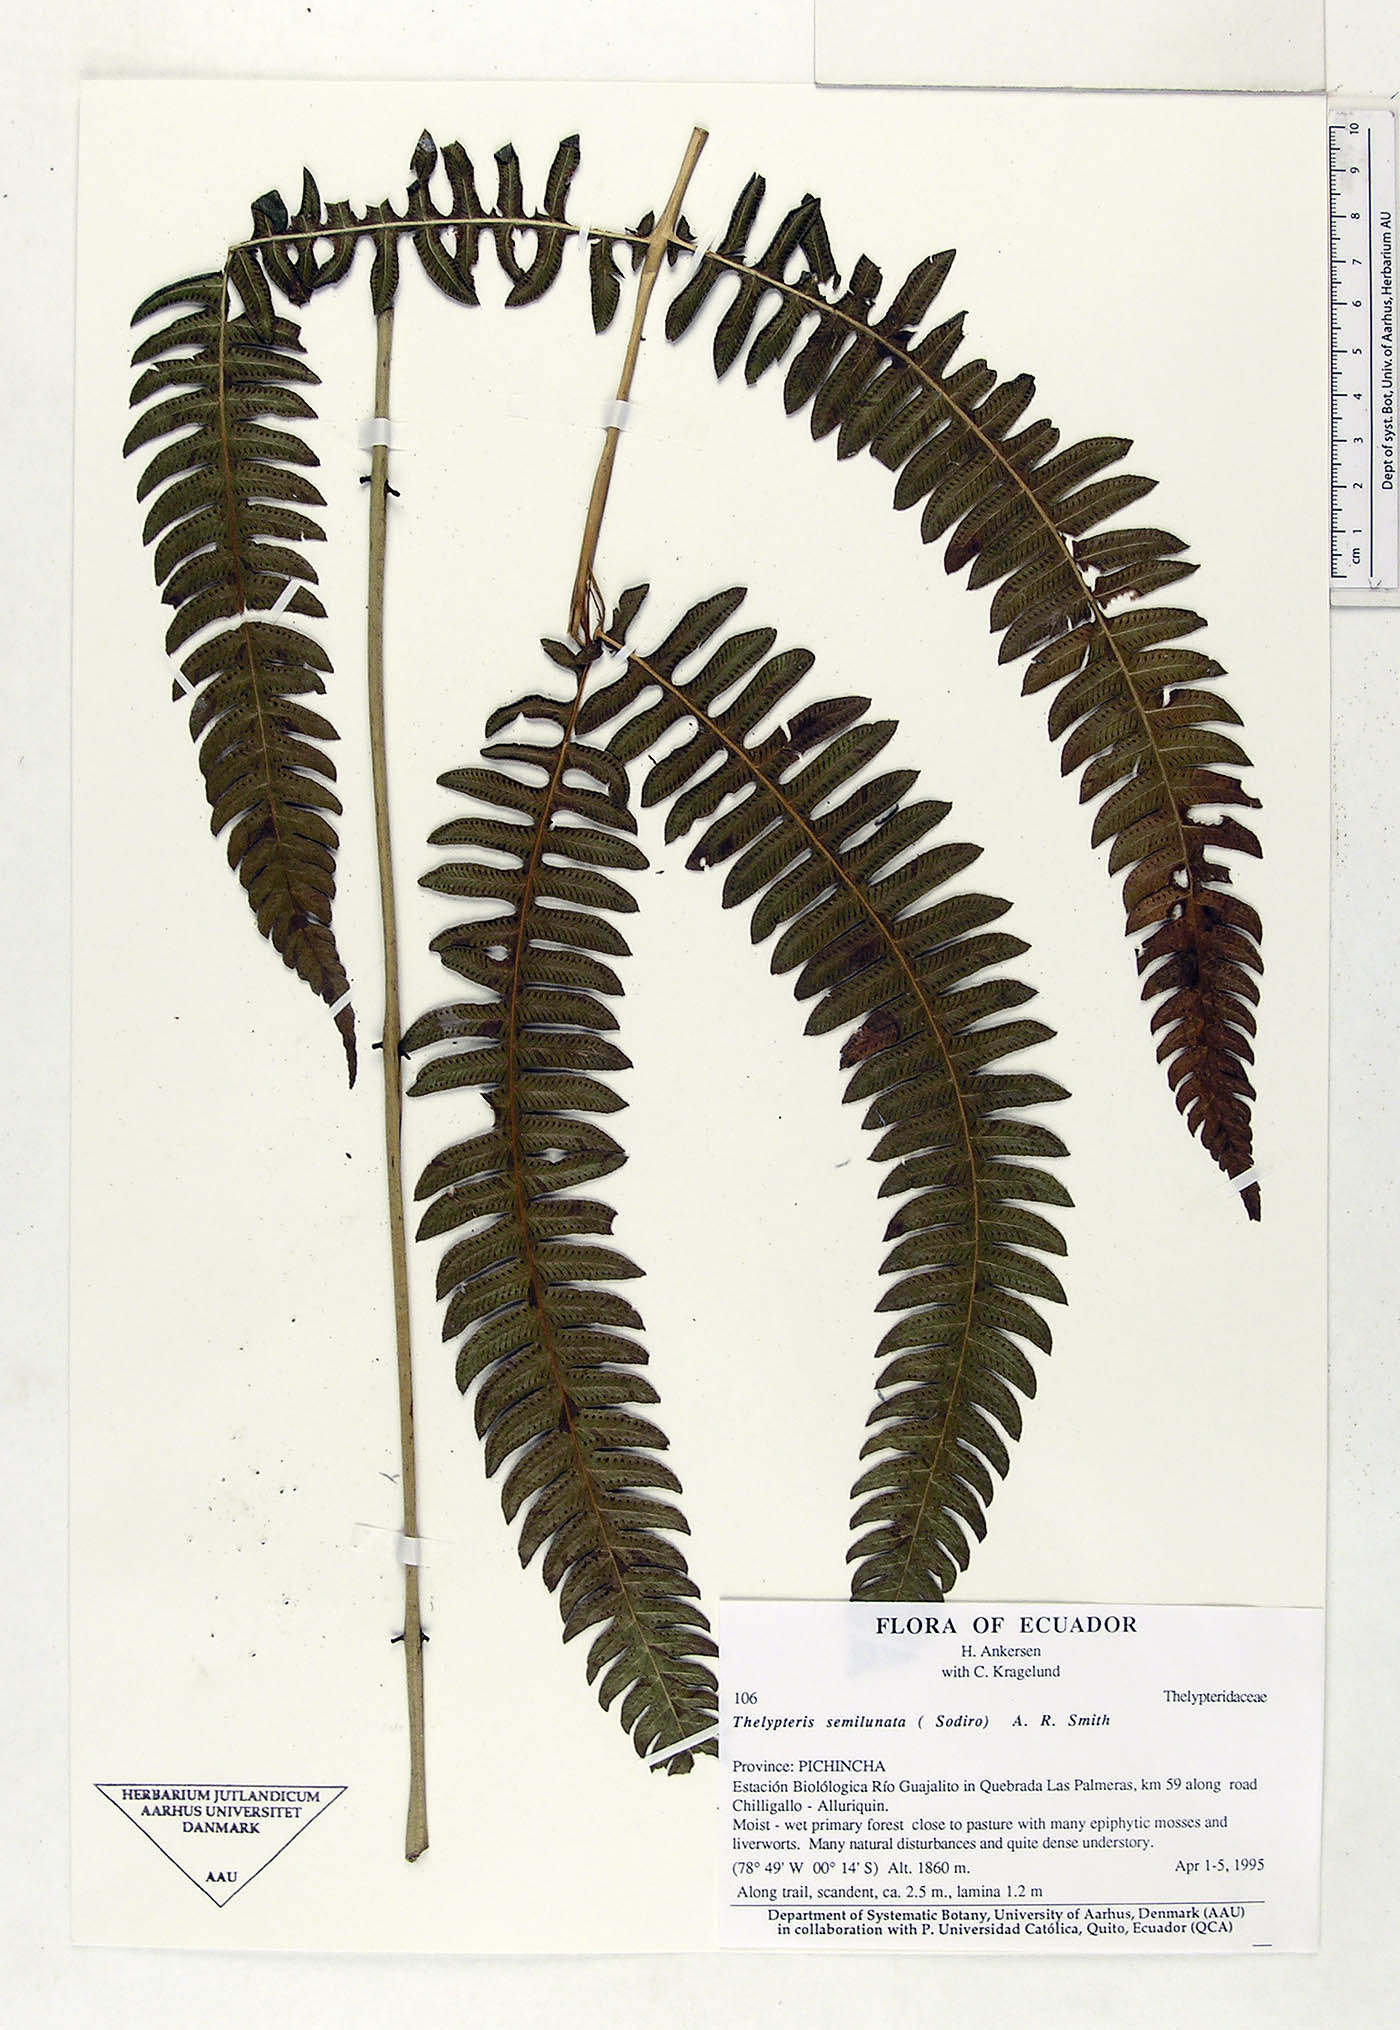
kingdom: Plantae
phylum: Tracheophyta
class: Polypodiopsida
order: Polypodiales
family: Thelypteridaceae
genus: Amauropelta
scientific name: Amauropelta semilunata
